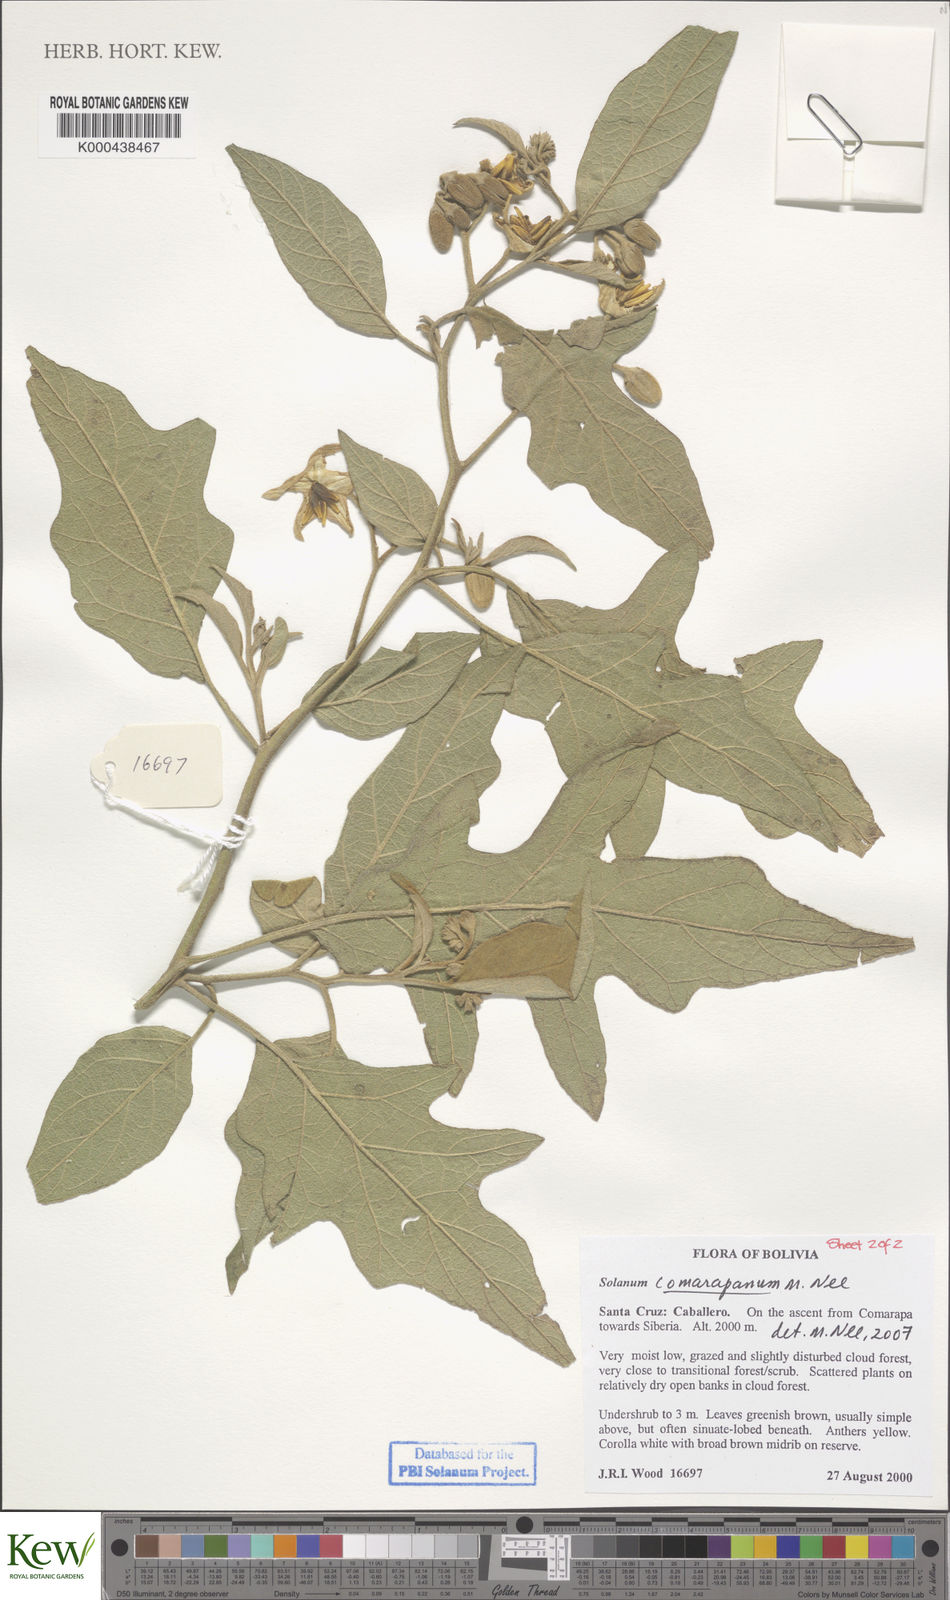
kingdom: Plantae
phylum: Tracheophyta
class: Magnoliopsida
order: Solanales
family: Solanaceae
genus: Solanum
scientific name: Solanum comarapanum
